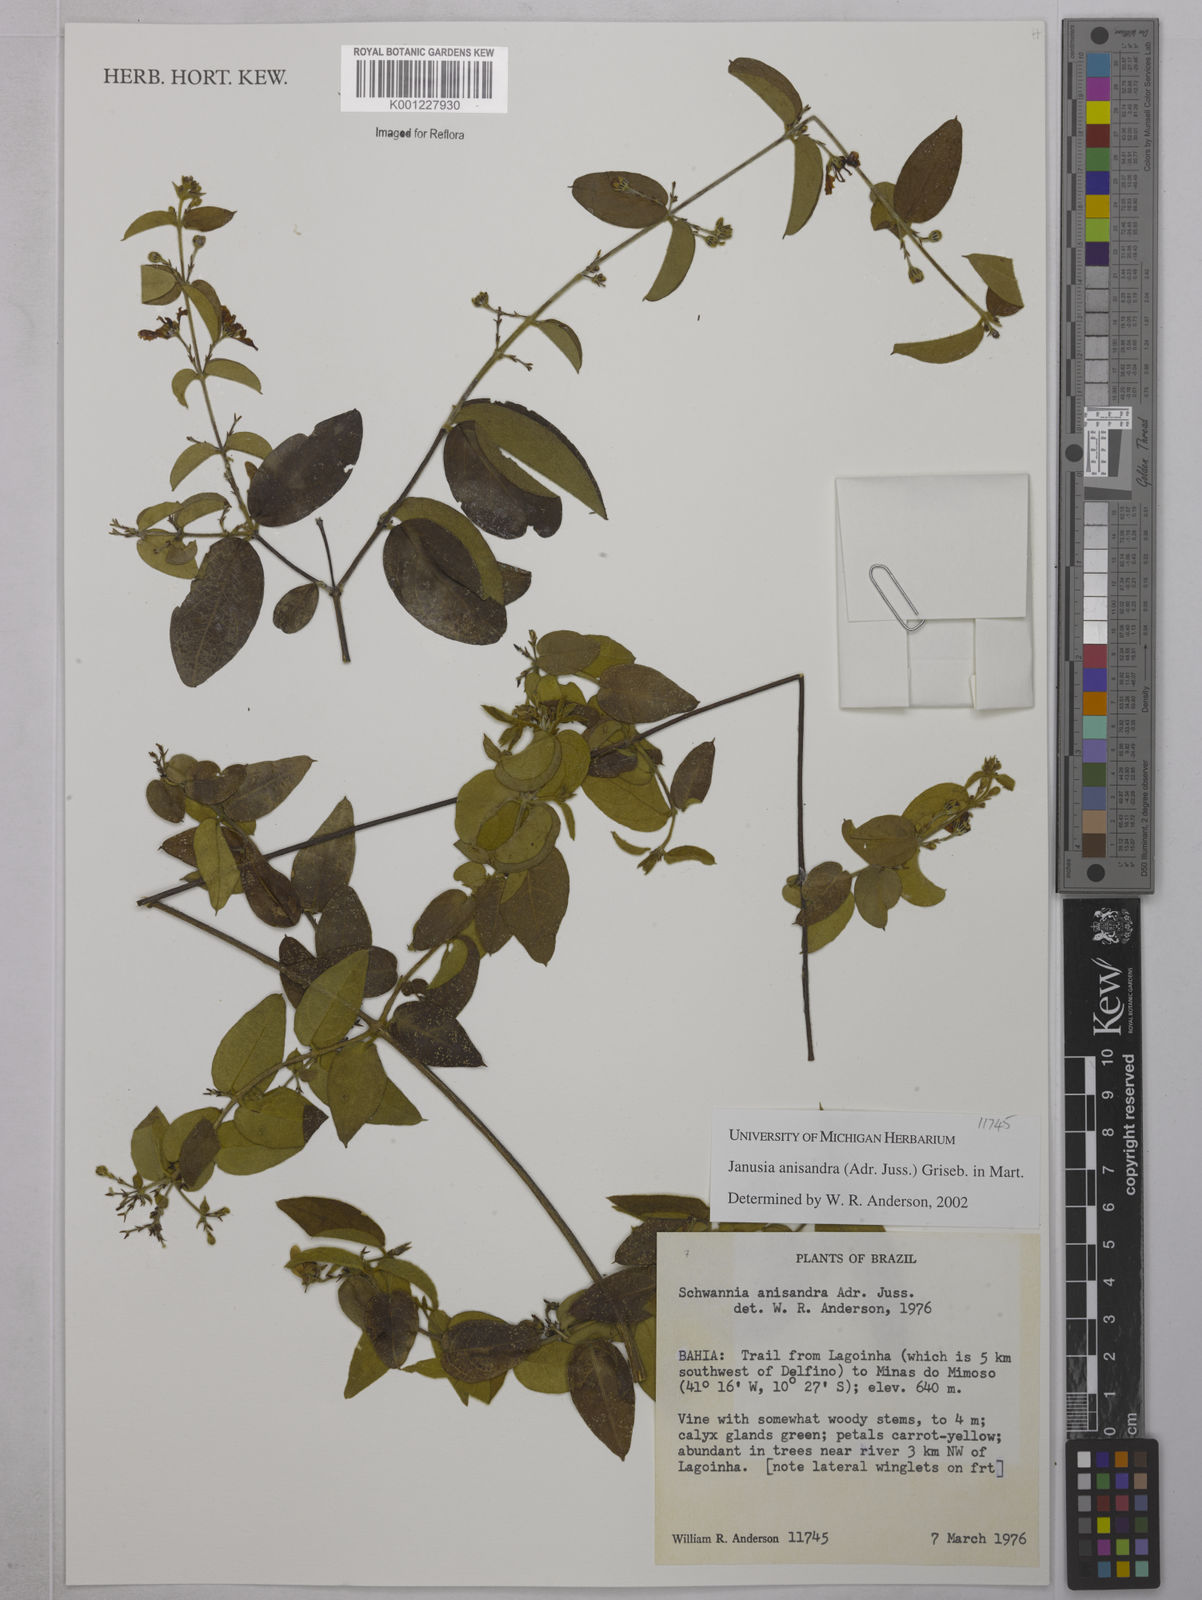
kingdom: Plantae
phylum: Tracheophyta
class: Magnoliopsida
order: Malpighiales
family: Malpighiaceae
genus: Janusia
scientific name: Janusia anisandra
